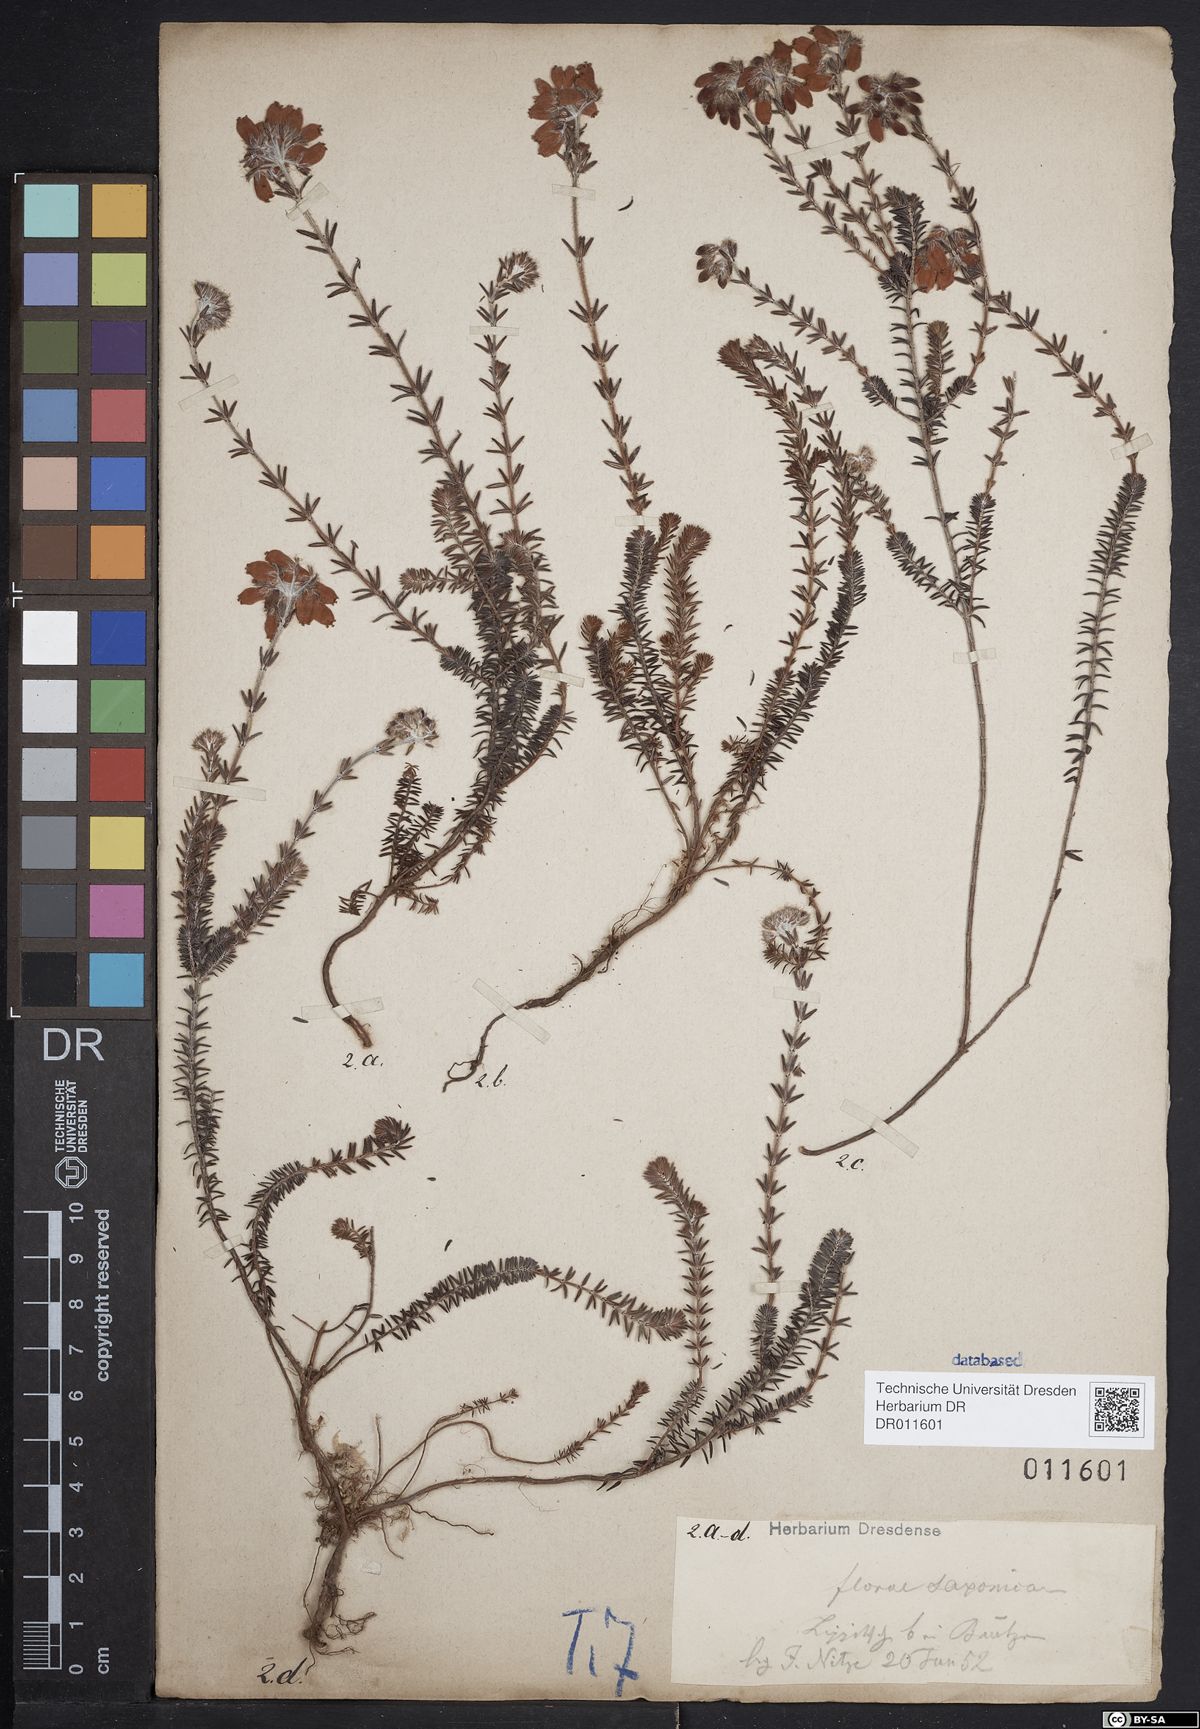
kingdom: Plantae
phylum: Tracheophyta
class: Magnoliopsida
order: Ericales
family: Ericaceae
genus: Erica
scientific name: Erica tetralix
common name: Cross-leaved heath
